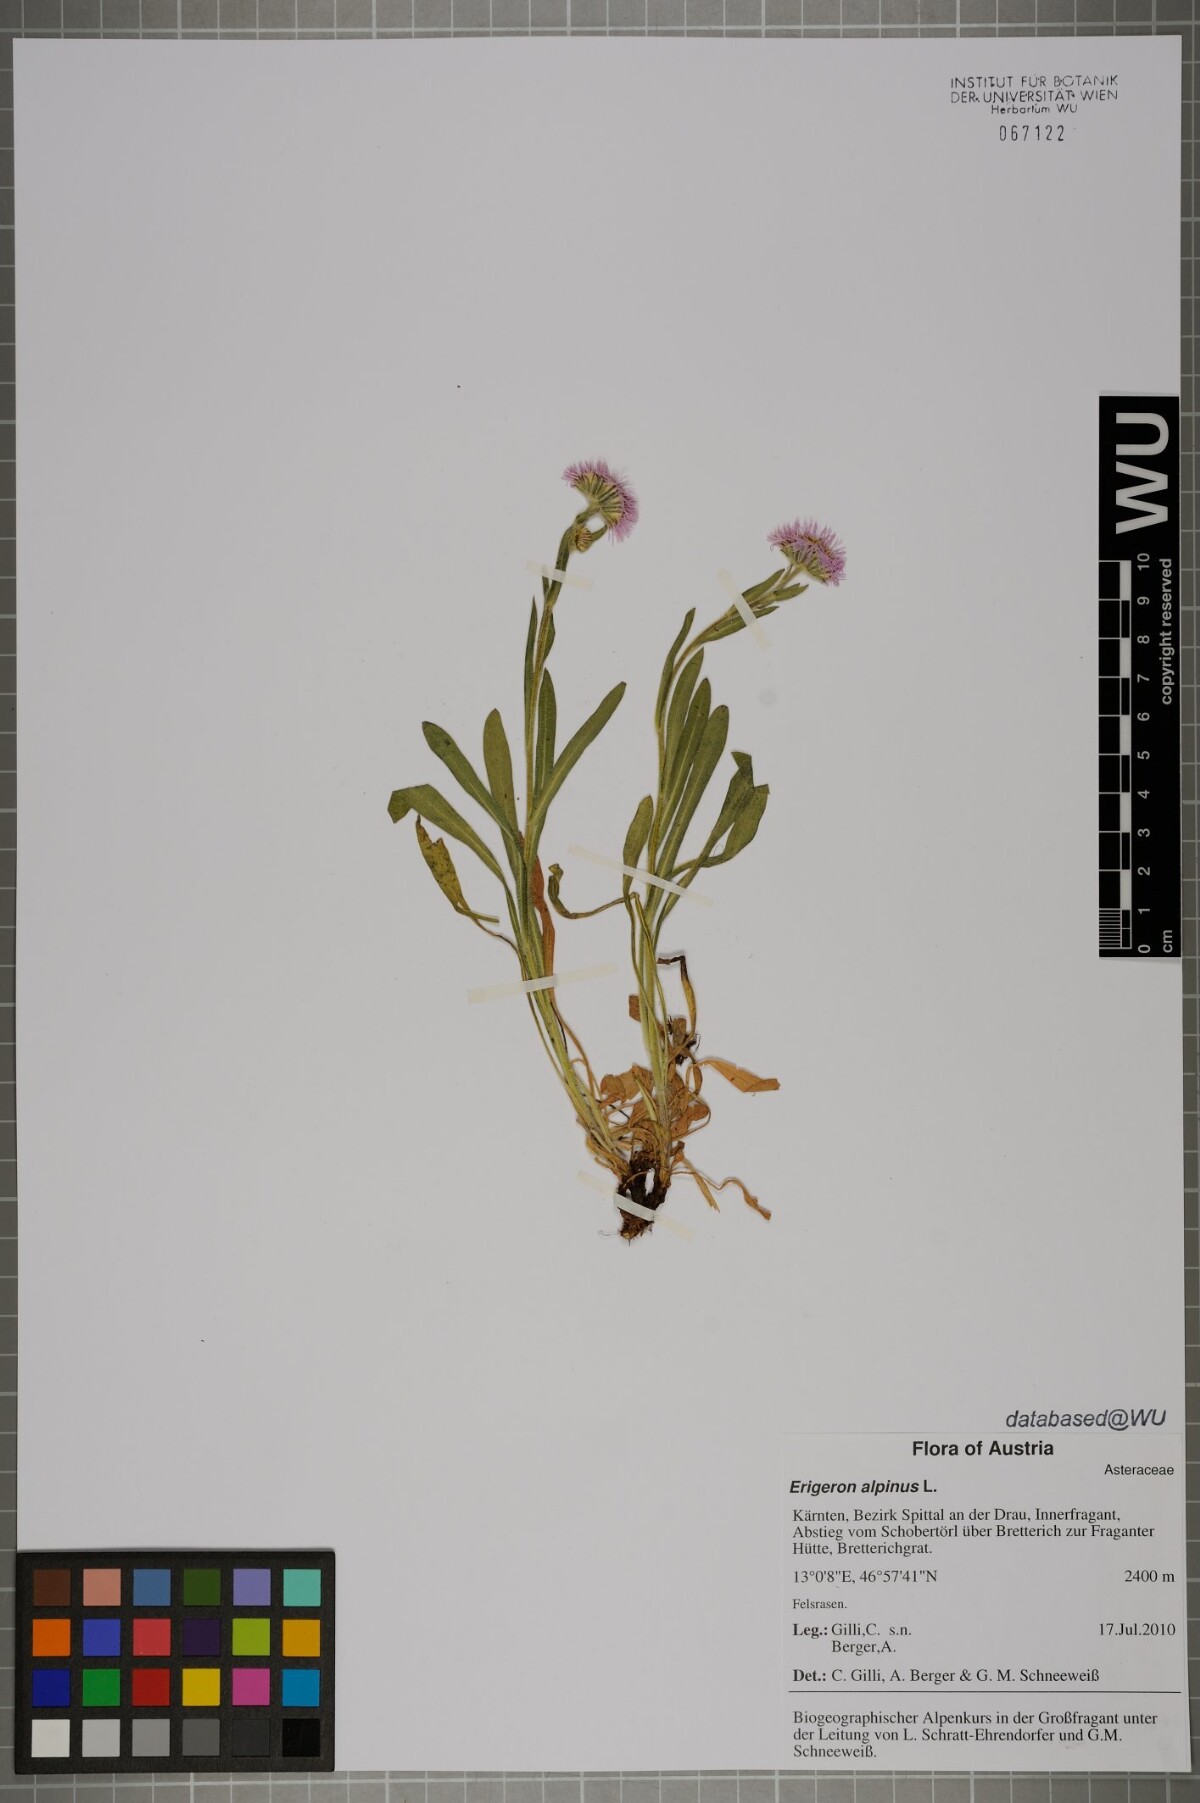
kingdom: Plantae
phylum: Tracheophyta
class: Magnoliopsida
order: Asterales
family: Asteraceae
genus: Erigeron
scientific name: Erigeron alpinus
